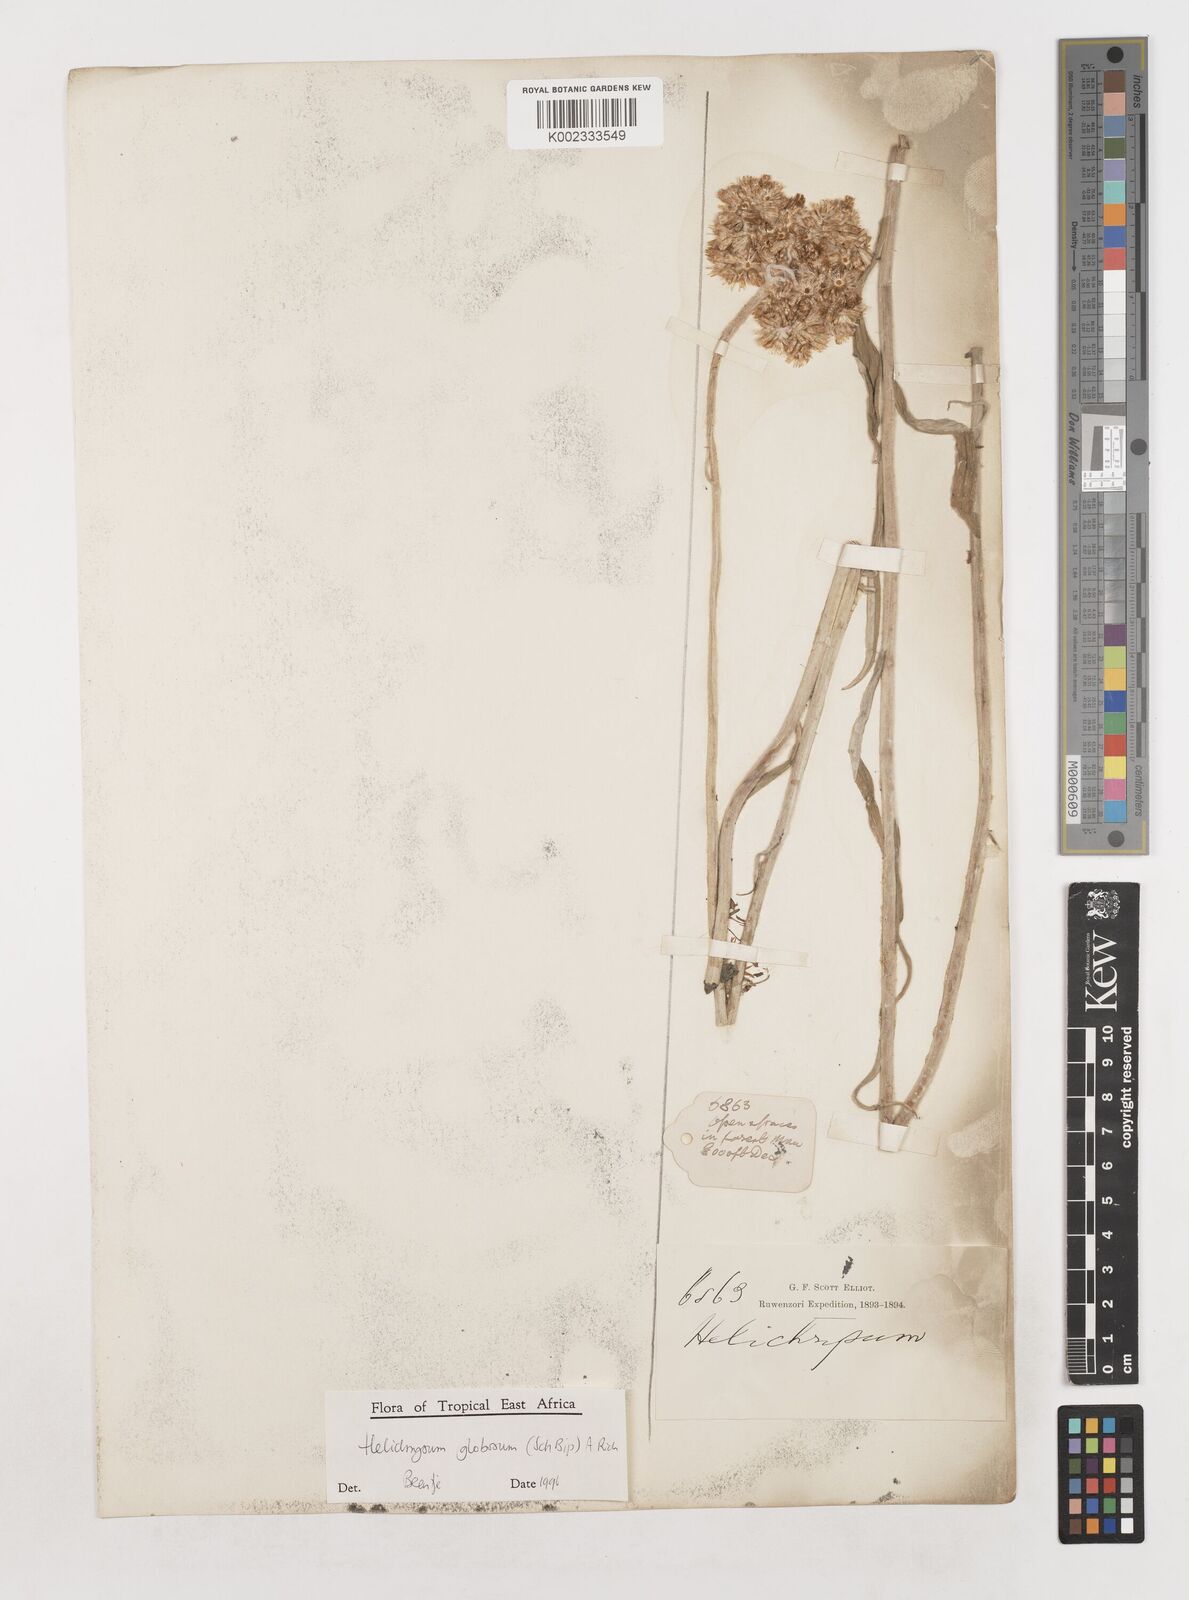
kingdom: Plantae
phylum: Tracheophyta
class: Magnoliopsida
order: Asterales
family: Asteraceae
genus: Helichrysum
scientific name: Helichrysum globosum
